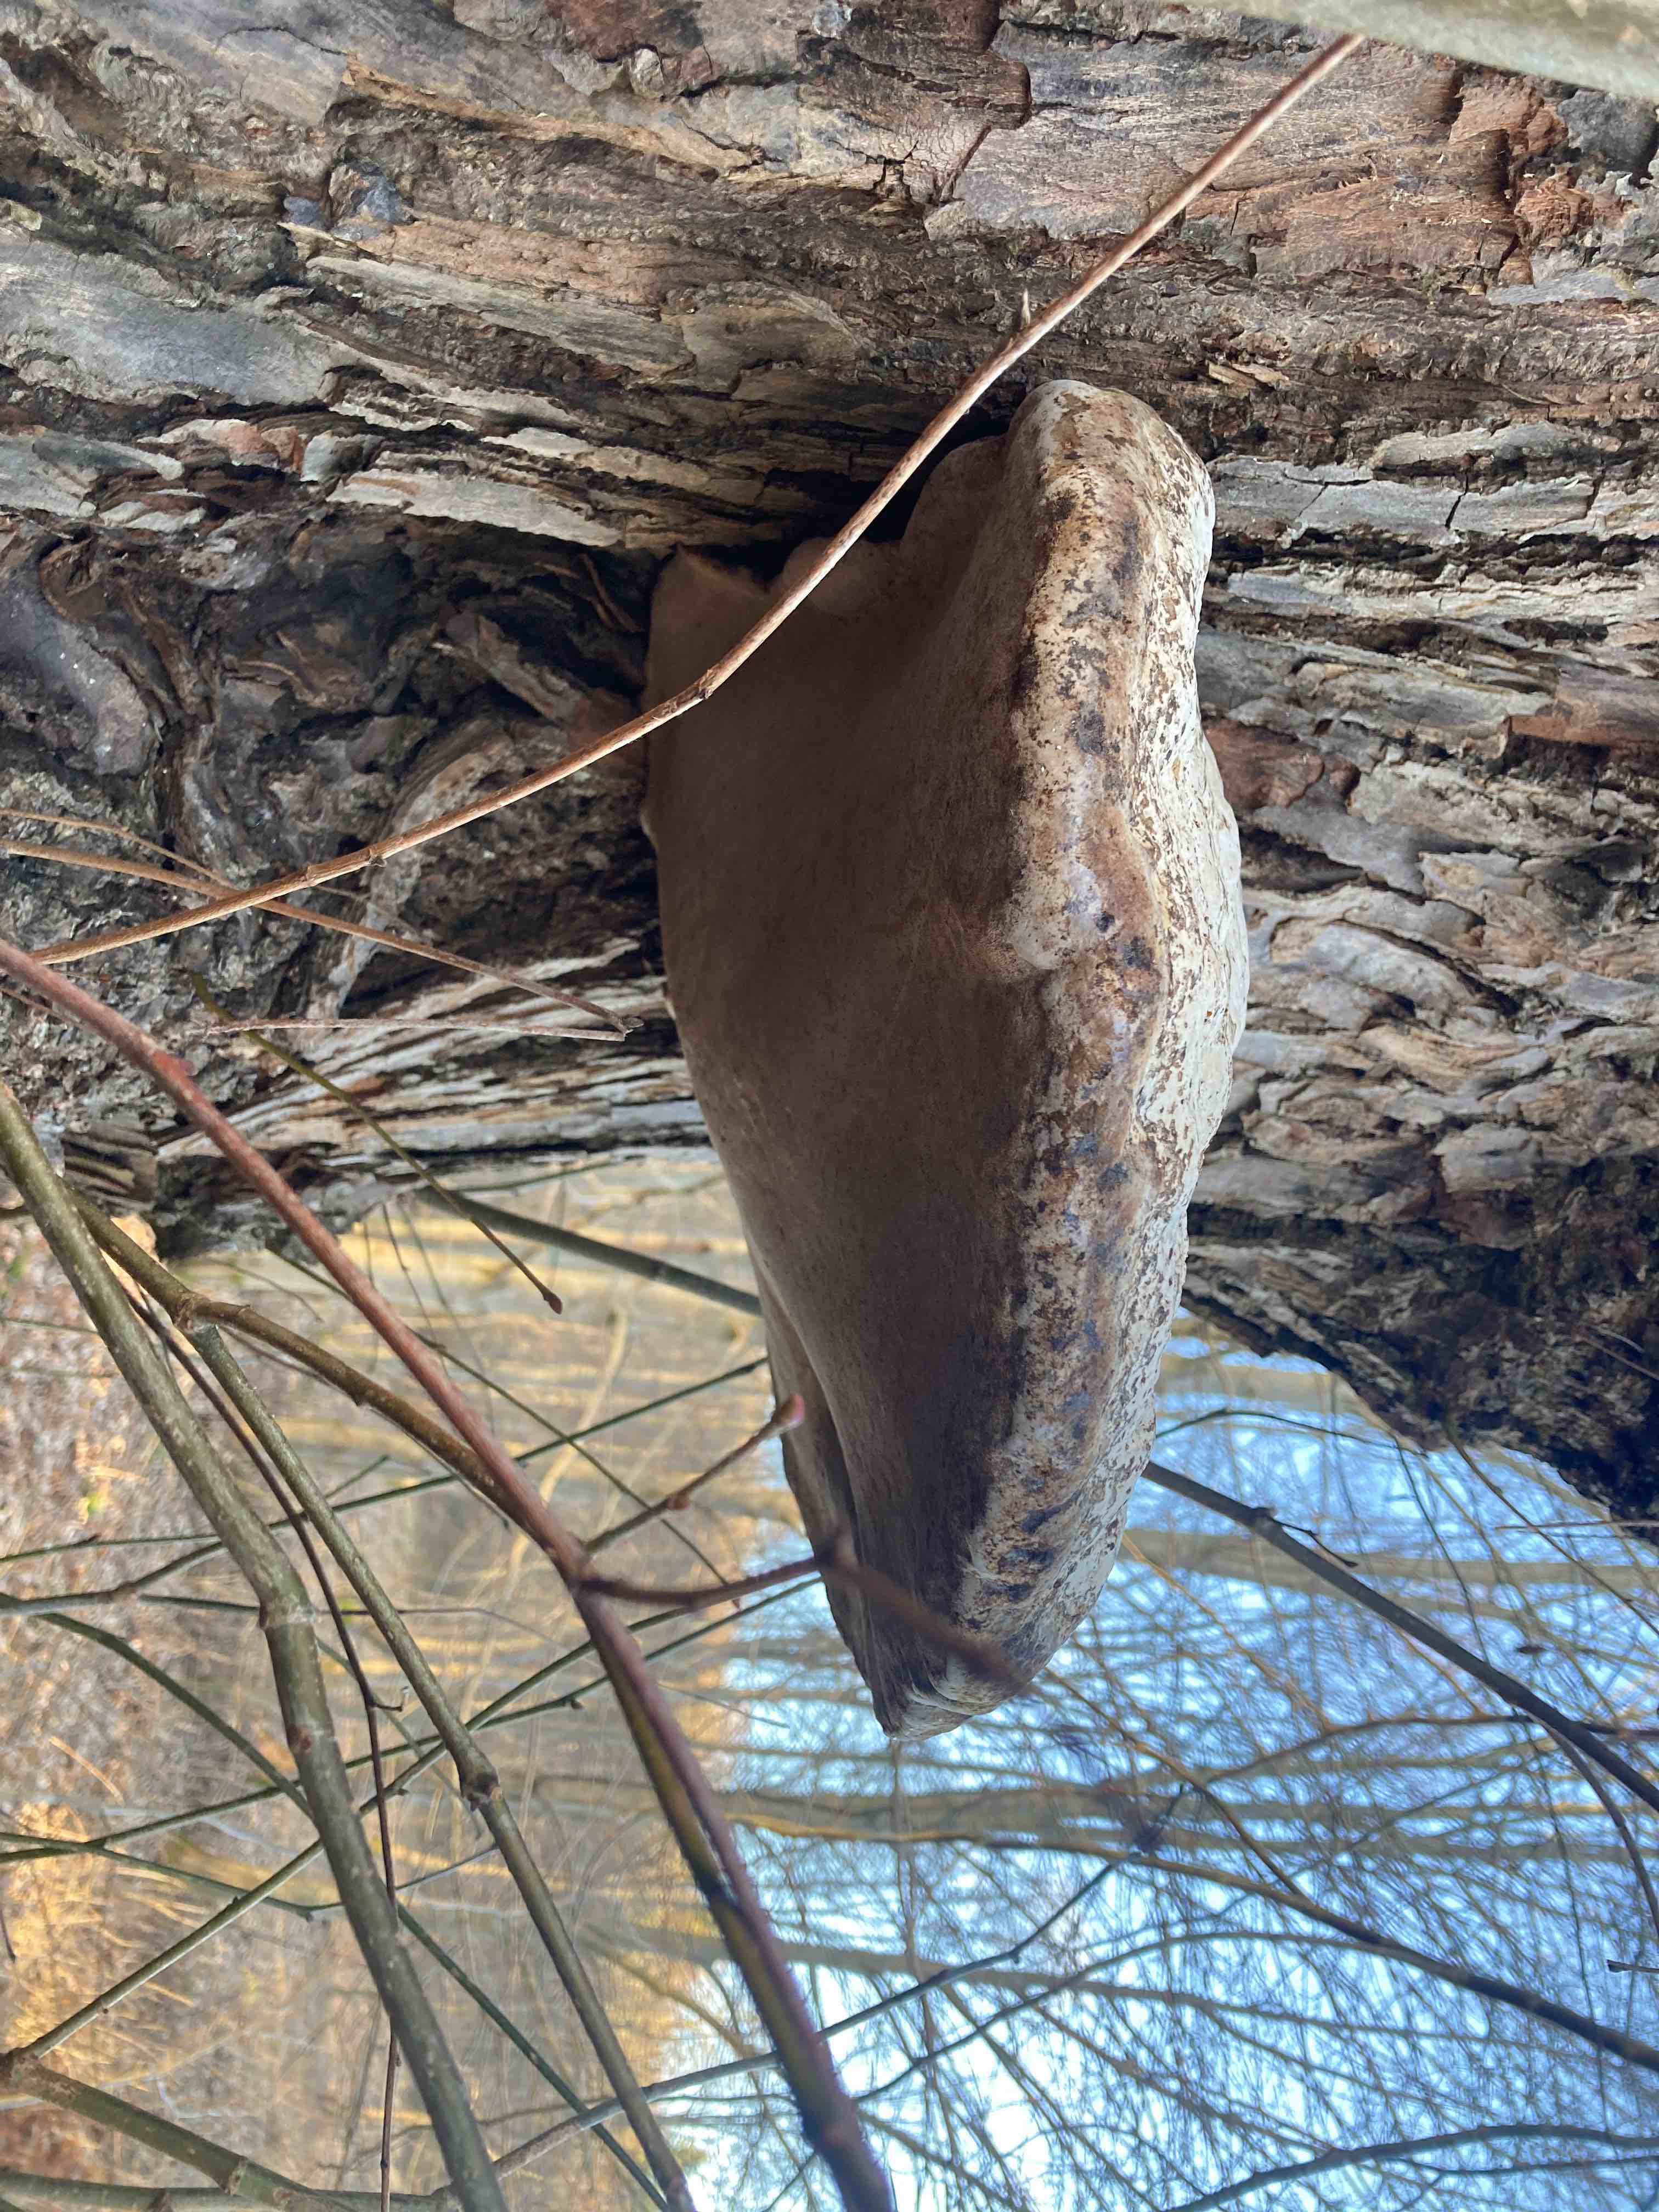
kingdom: Fungi
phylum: Basidiomycota
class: Agaricomycetes
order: Polyporales
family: Polyporaceae
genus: Fomes
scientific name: Fomes fomentarius
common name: tøndersvamp
